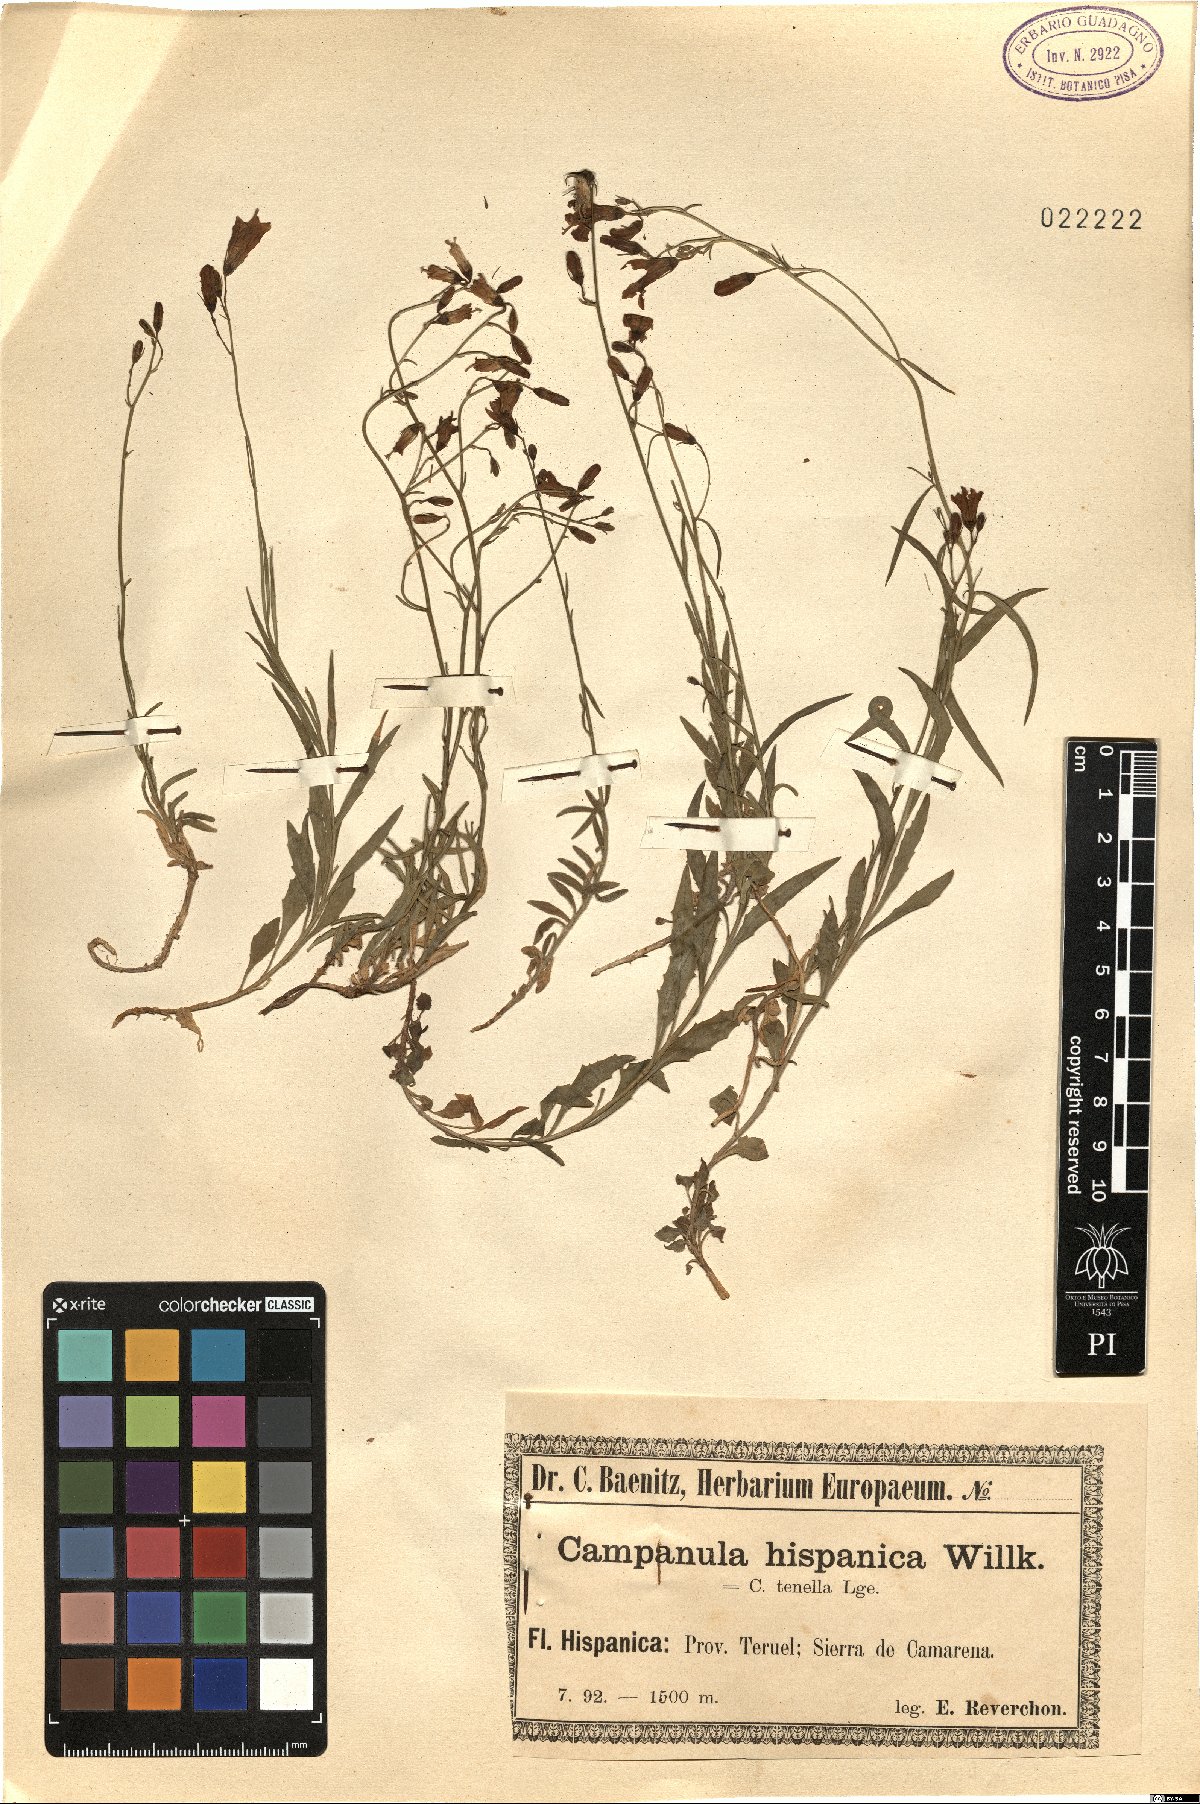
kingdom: Plantae
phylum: Tracheophyta
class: Magnoliopsida
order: Asterales
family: Campanulaceae
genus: Campanula
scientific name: Campanula hispanica
